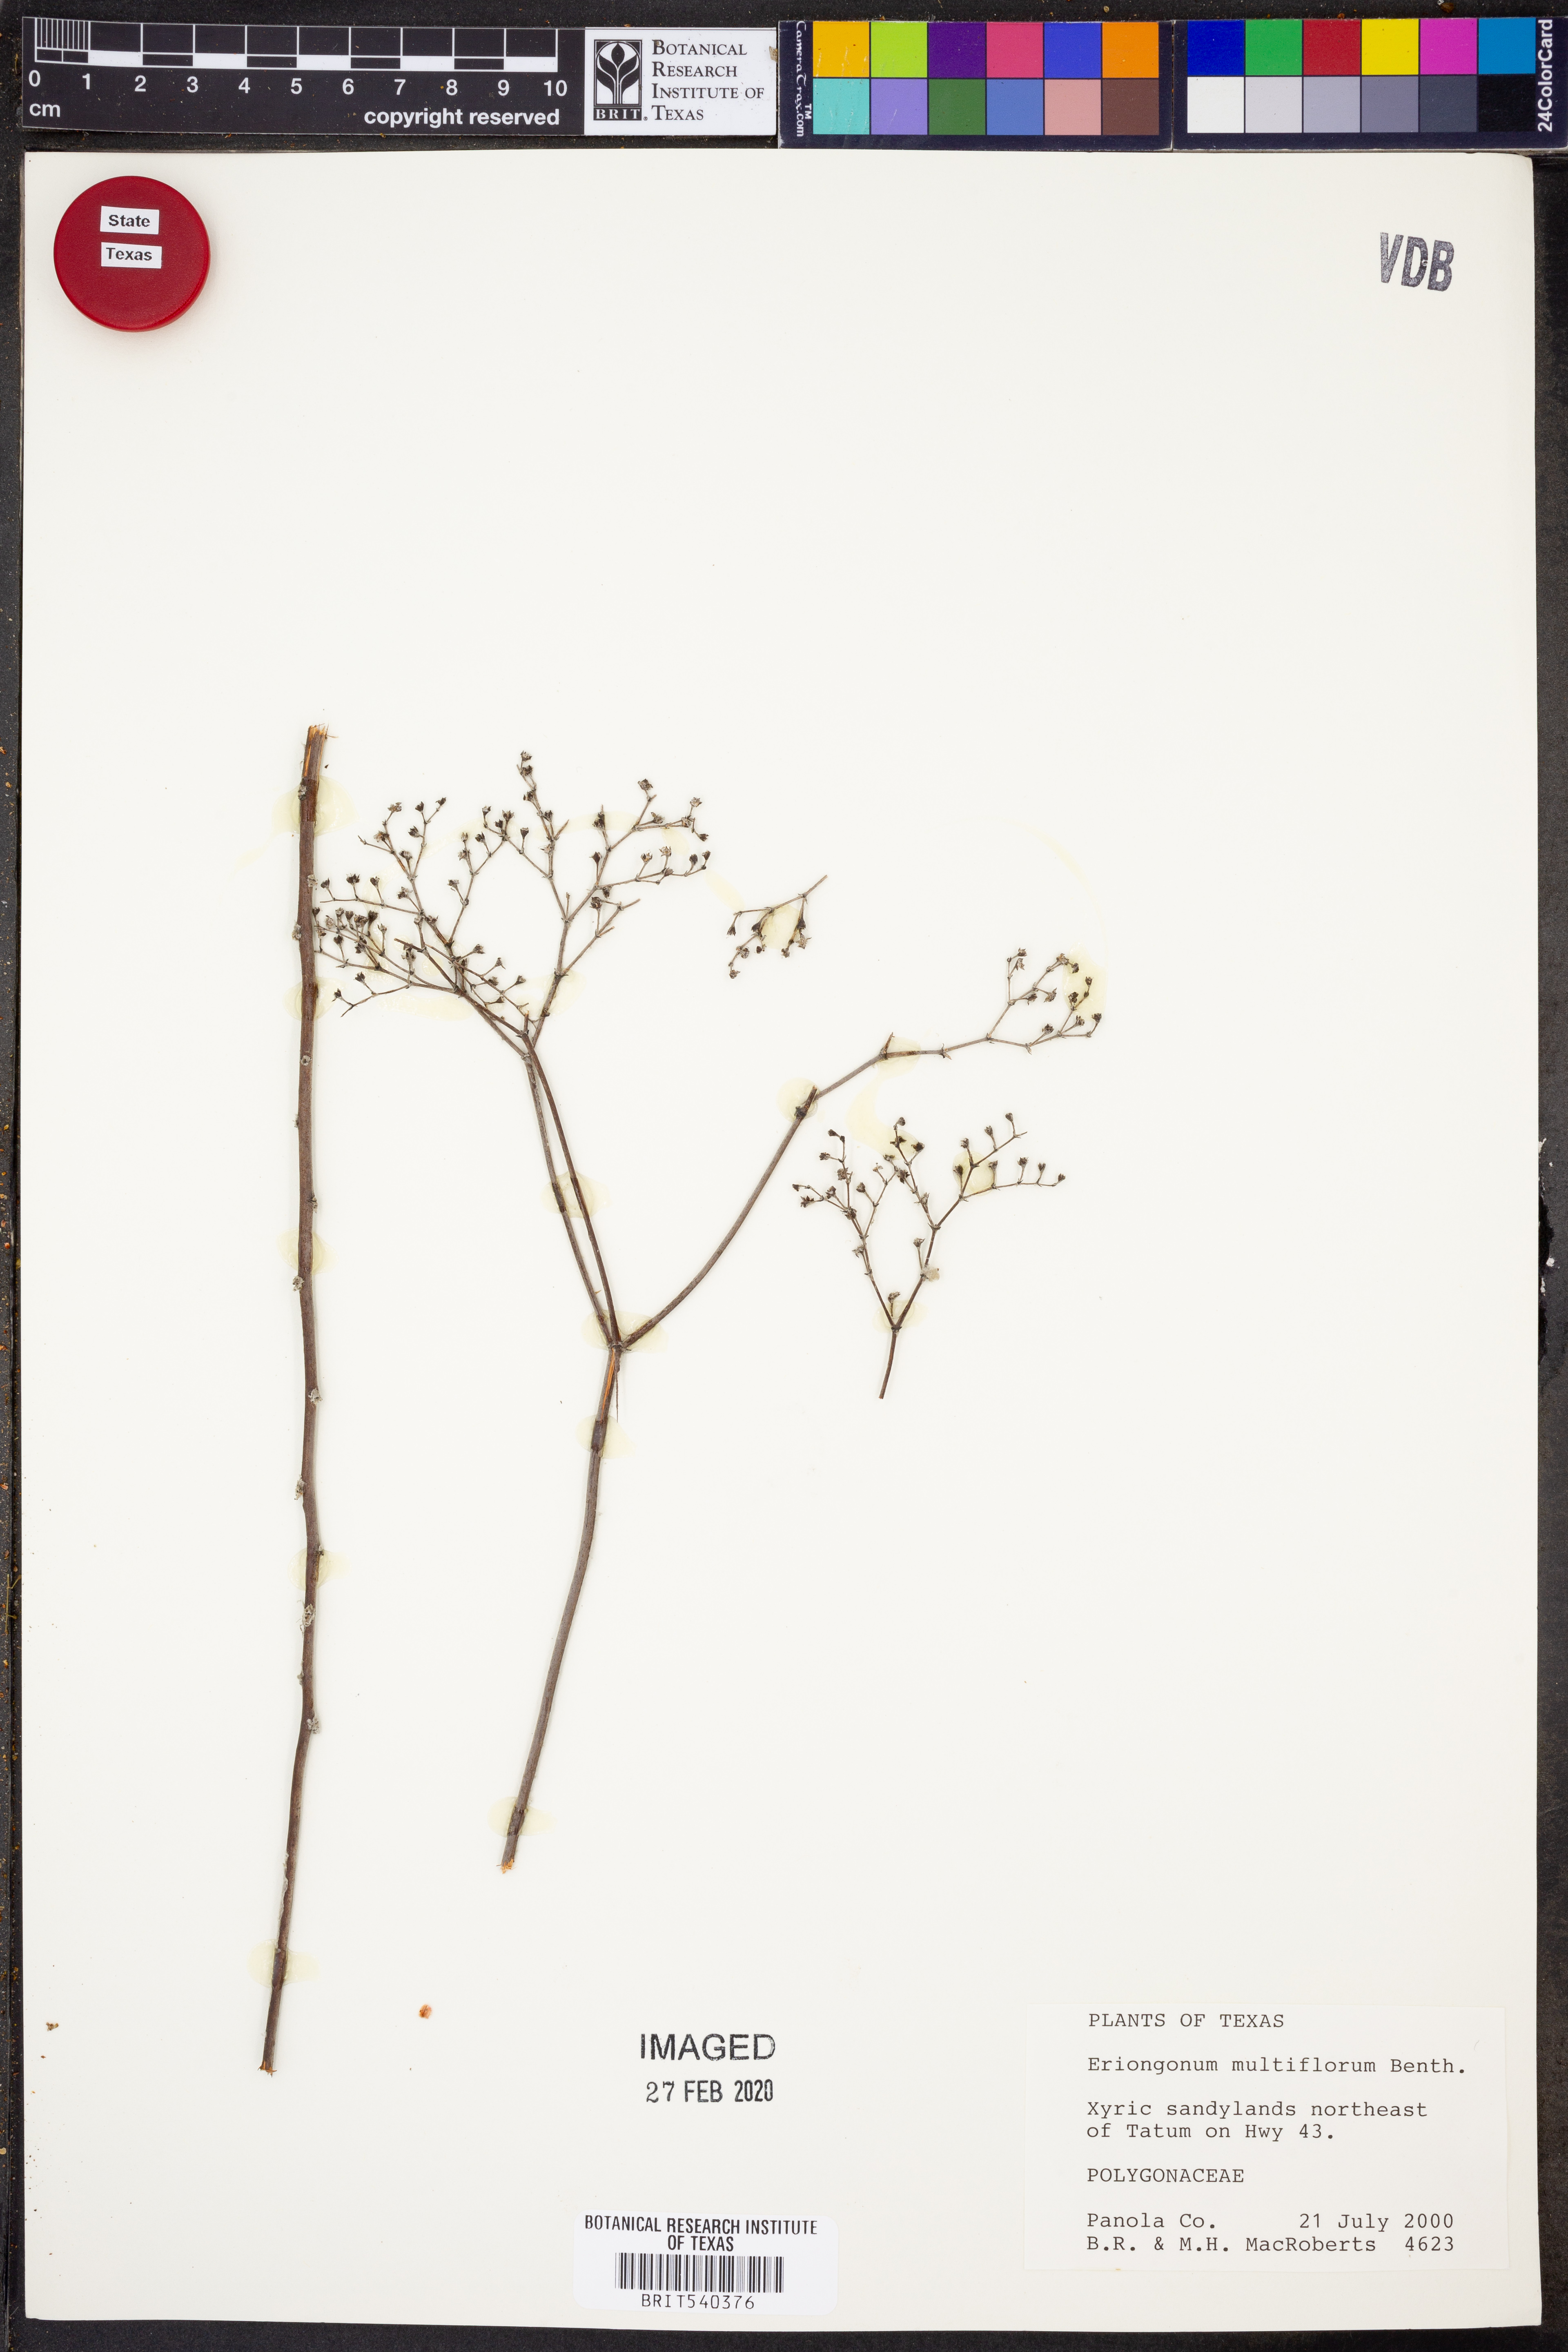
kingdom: Plantae
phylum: Tracheophyta
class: Magnoliopsida
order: Caryophyllales
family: Polygonaceae
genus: Eriogonum
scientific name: Eriogonum multiflorum
